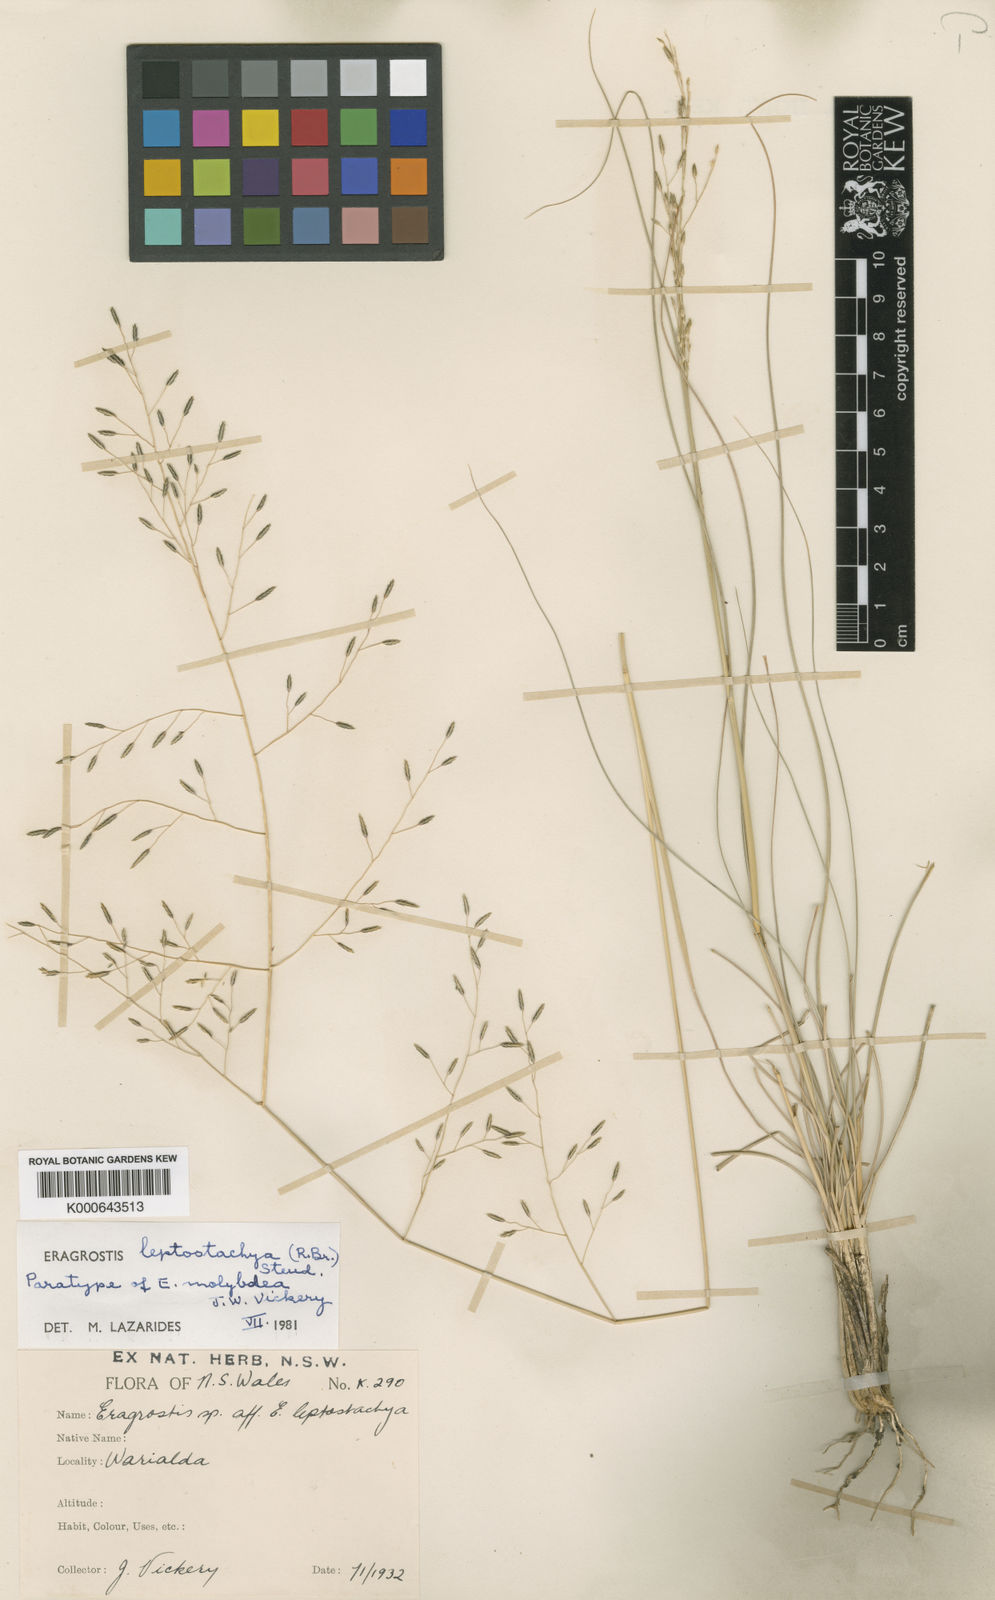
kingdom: Plantae
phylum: Tracheophyta
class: Liliopsida
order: Poales
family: Poaceae
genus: Eragrostis
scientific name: Eragrostis leptostachya
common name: Australian lovegrass
